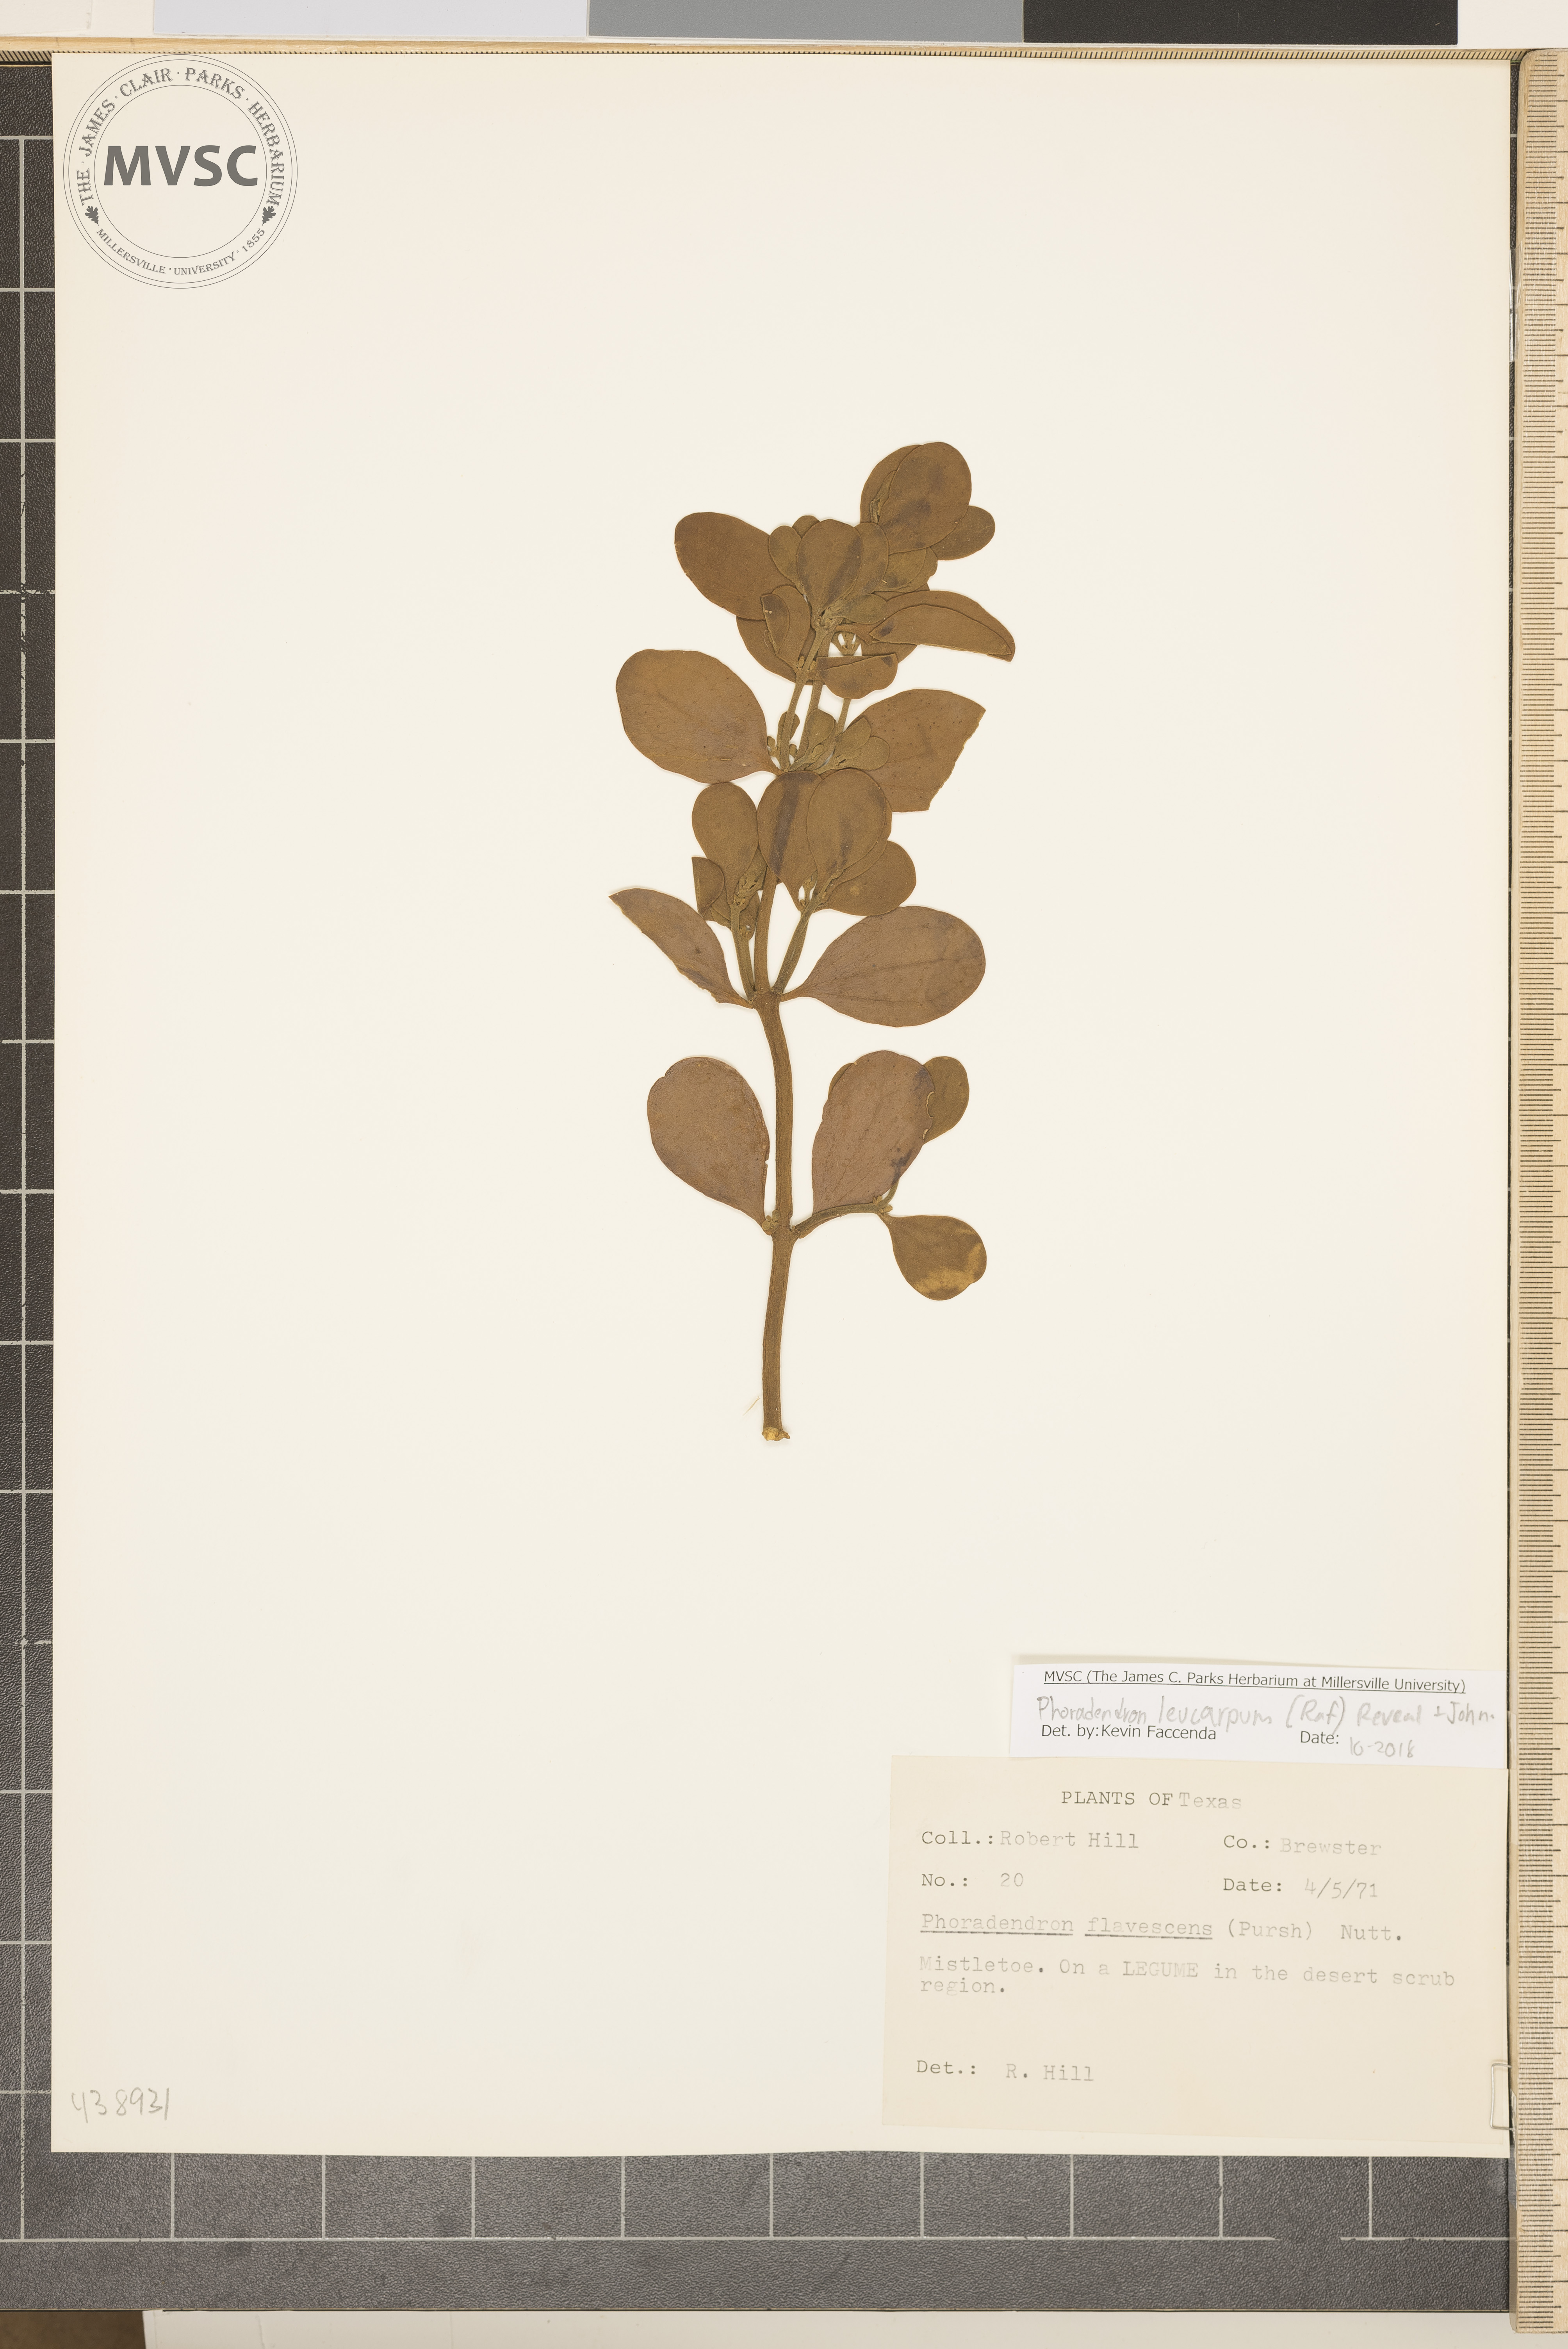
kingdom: Plantae
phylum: Tracheophyta
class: Magnoliopsida
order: Santalales
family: Viscaceae
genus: Phoradendron
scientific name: Phoradendron leucarpum
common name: Mistletoe
